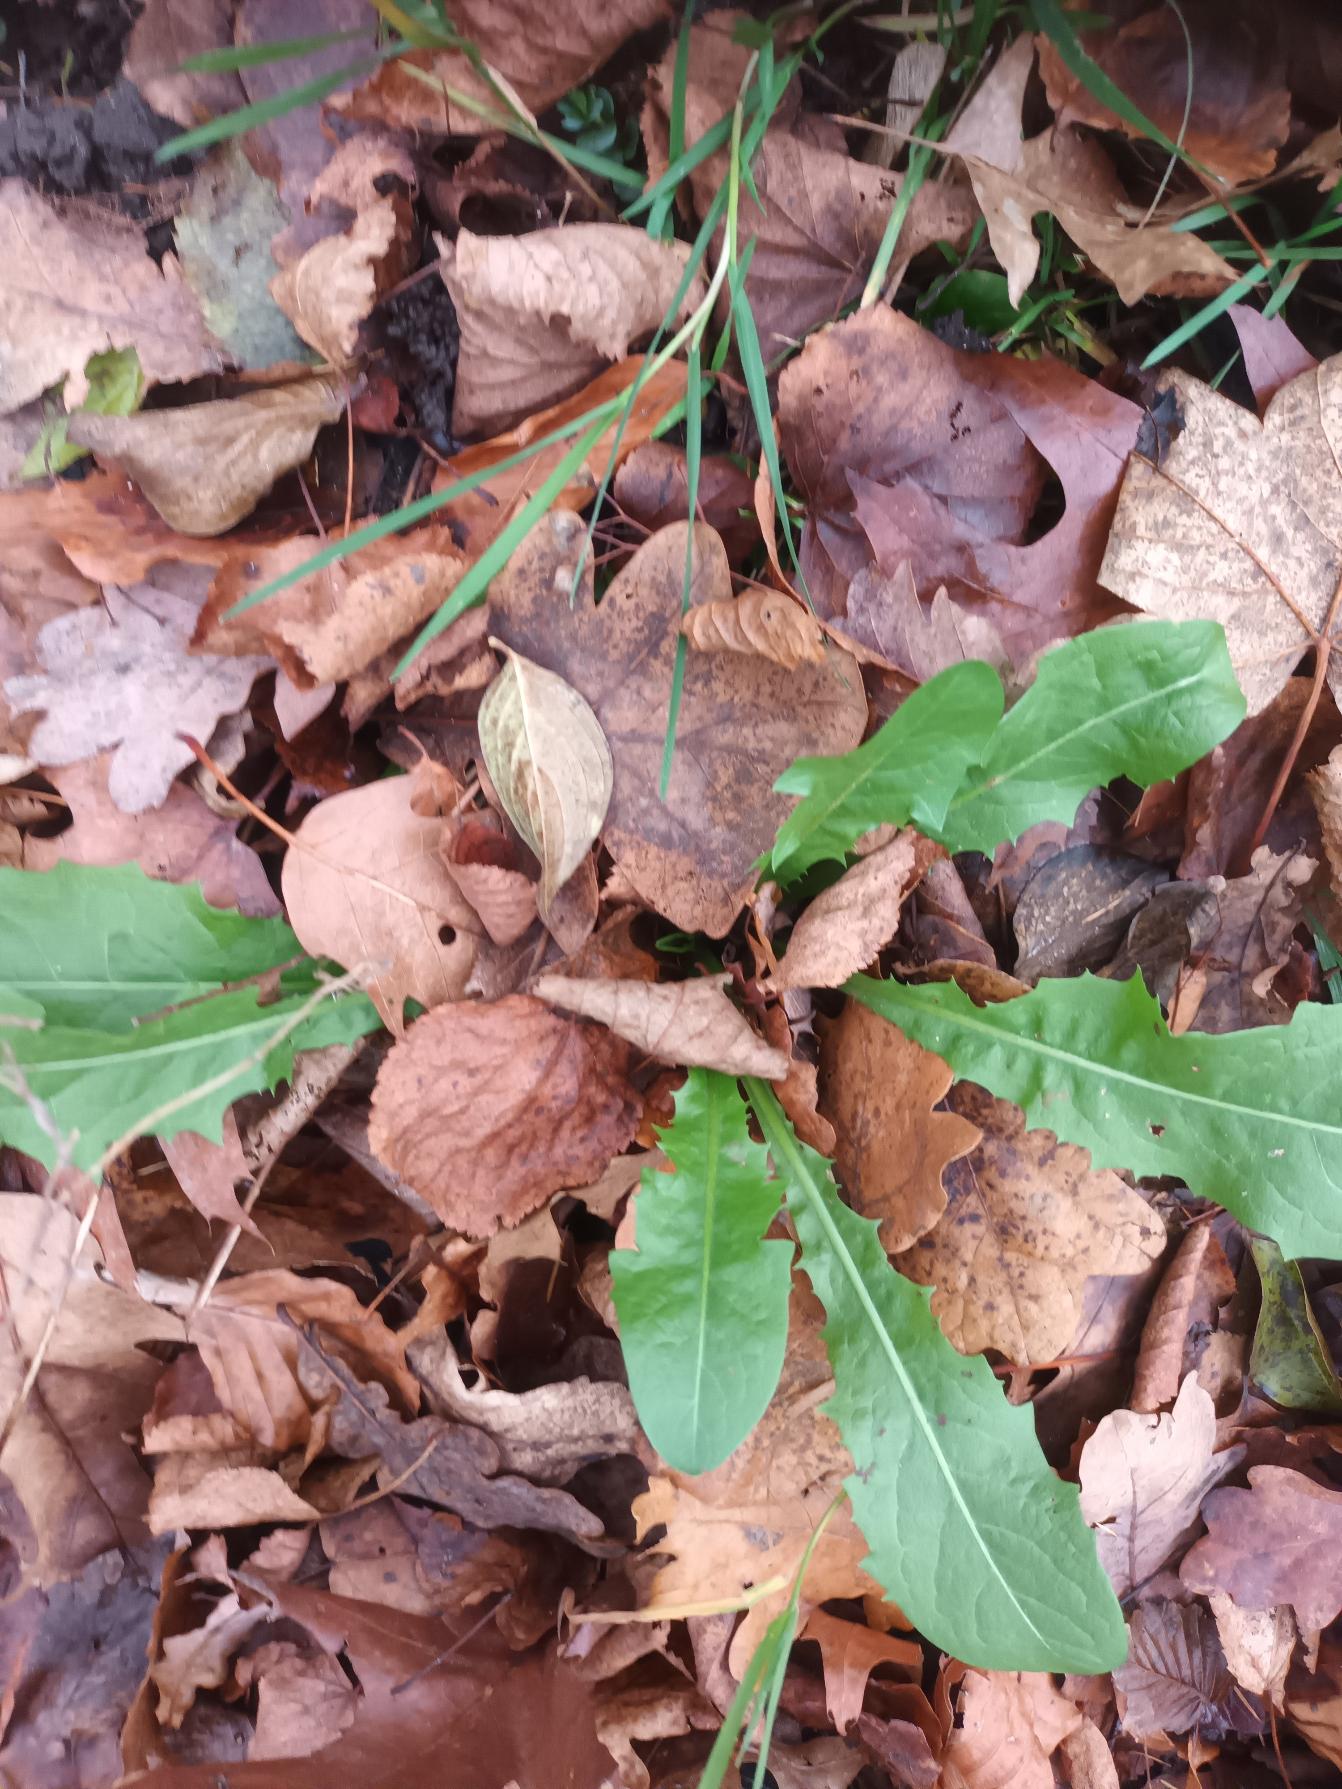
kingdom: Plantae
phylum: Tracheophyta
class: Magnoliopsida
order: Asterales
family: Asteraceae
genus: Taraxacum
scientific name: Taraxacum
